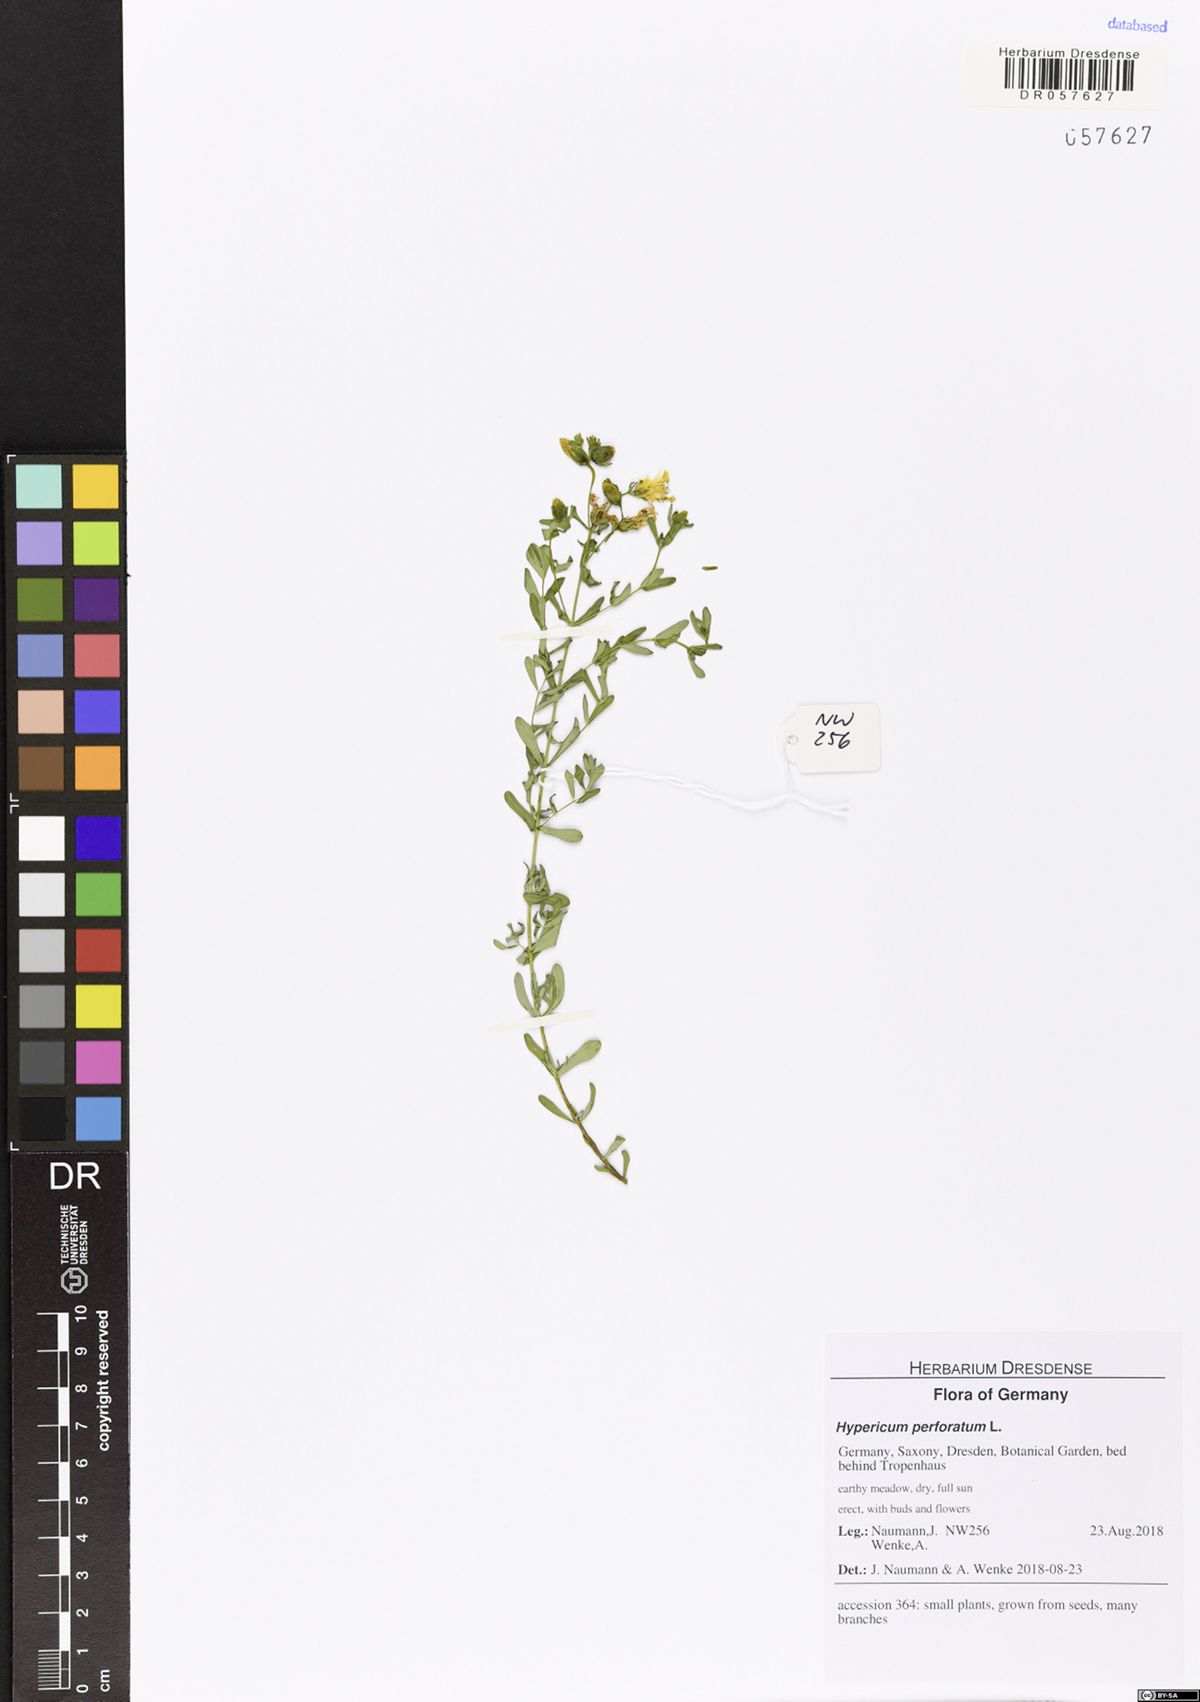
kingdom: Plantae
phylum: Tracheophyta
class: Magnoliopsida
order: Malpighiales
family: Hypericaceae
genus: Hypericum
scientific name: Hypericum perforatum
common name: Common st. johnswort
